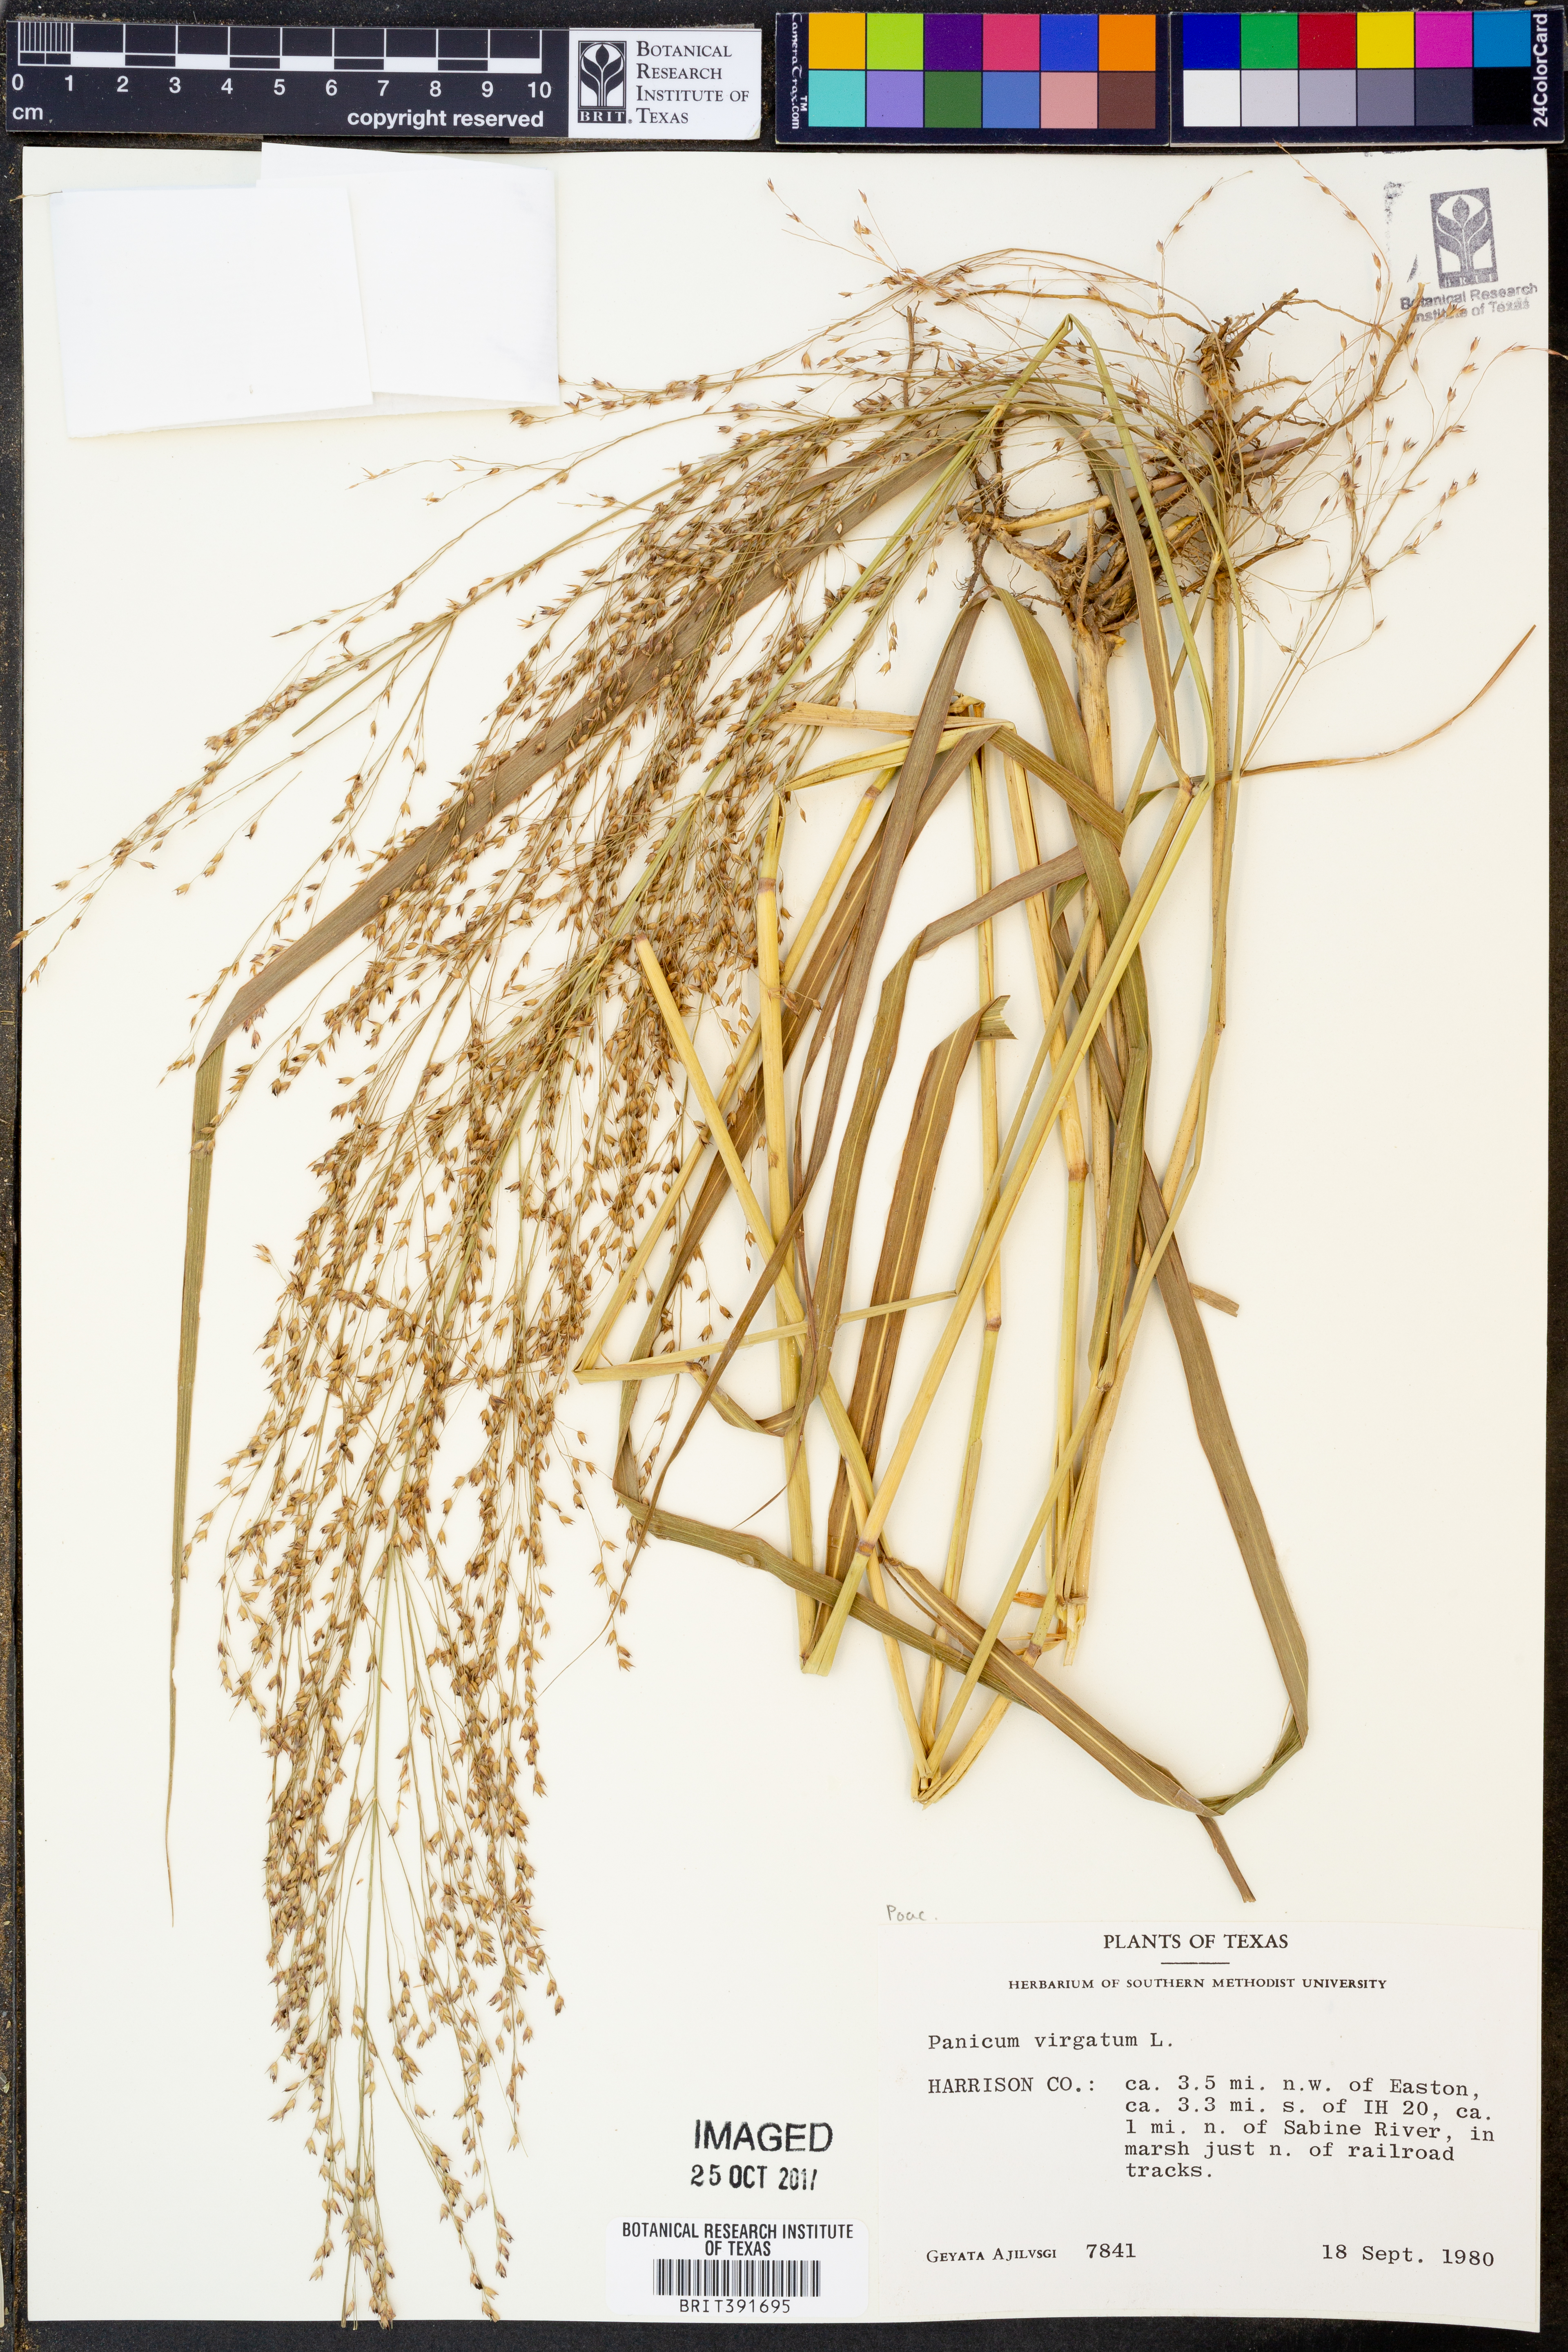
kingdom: Plantae
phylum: Tracheophyta
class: Liliopsida
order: Poales
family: Poaceae
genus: Panicum
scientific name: Panicum virgatum
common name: Switchgrass
